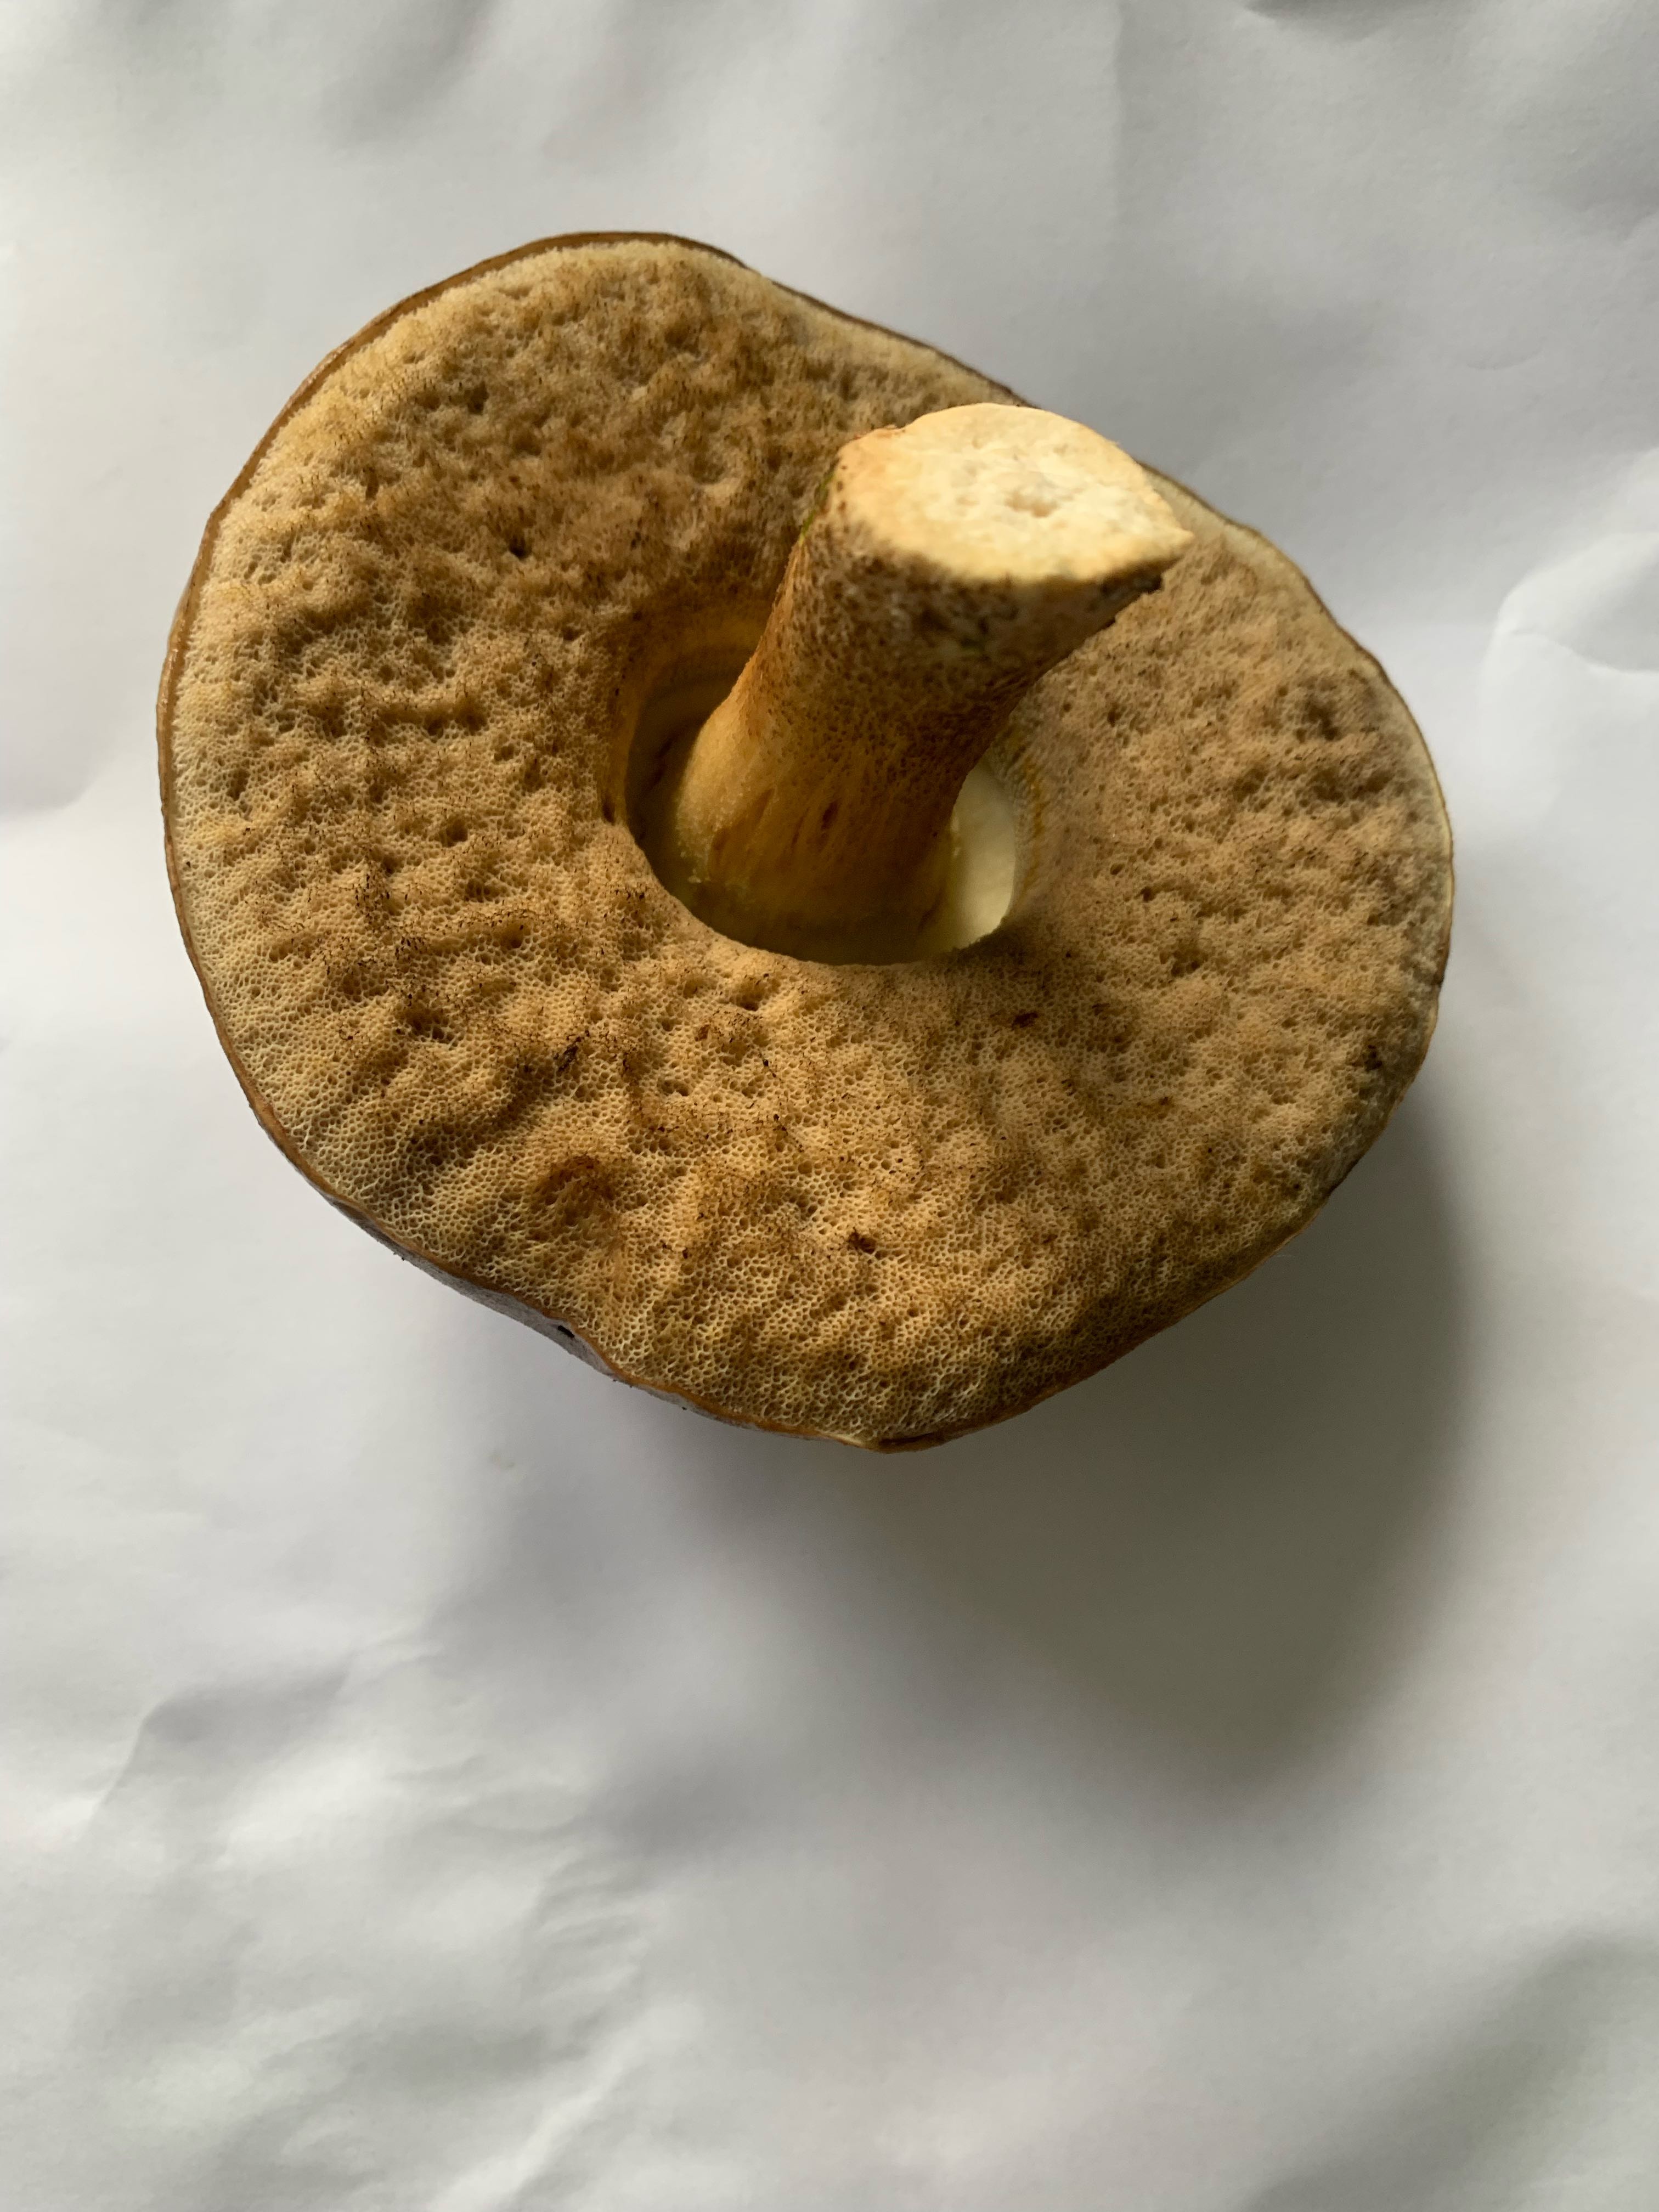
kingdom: Fungi
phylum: Basidiomycota
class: Agaricomycetes
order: Boletales
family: Boletaceae
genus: Leccinum
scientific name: Leccinum
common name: skælrørhat
